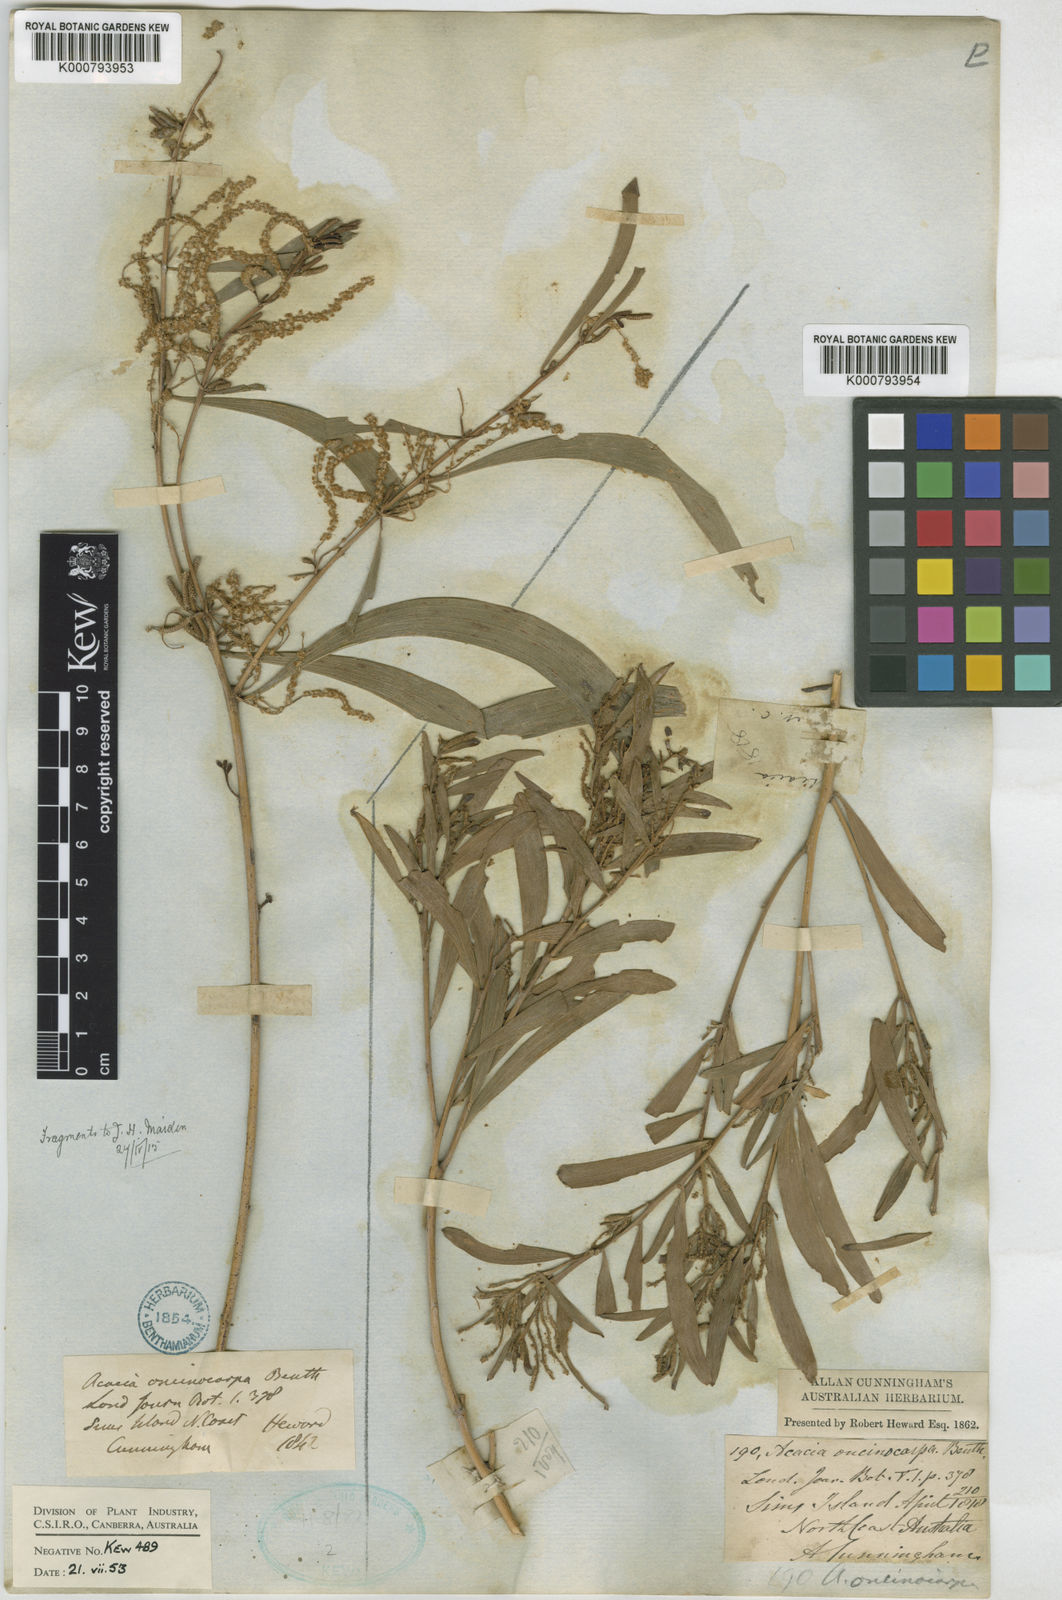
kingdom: Plantae
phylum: Tracheophyta
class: Magnoliopsida
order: Fabales
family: Fabaceae
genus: Acacia
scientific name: Acacia oncinocarpa
